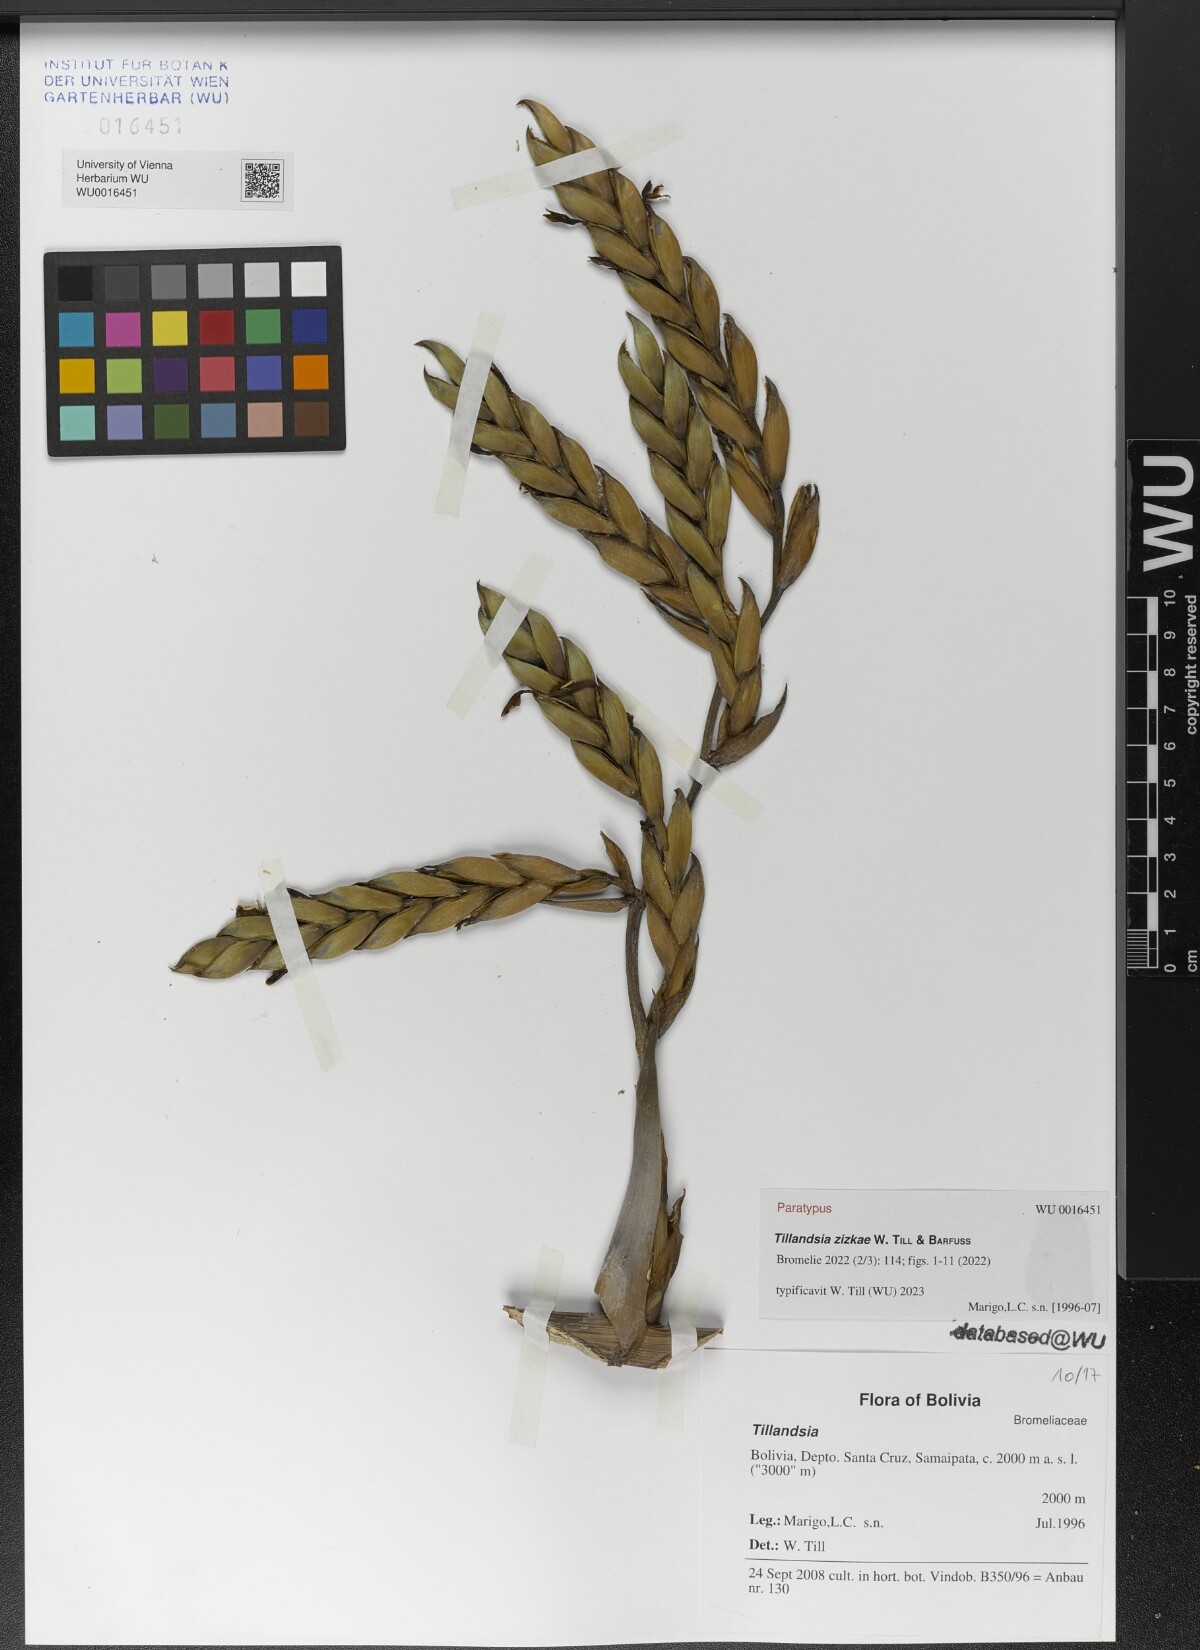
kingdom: Plantae
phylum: Tracheophyta
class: Liliopsida
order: Poales
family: Bromeliaceae
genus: Tillandsia
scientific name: Tillandsia
